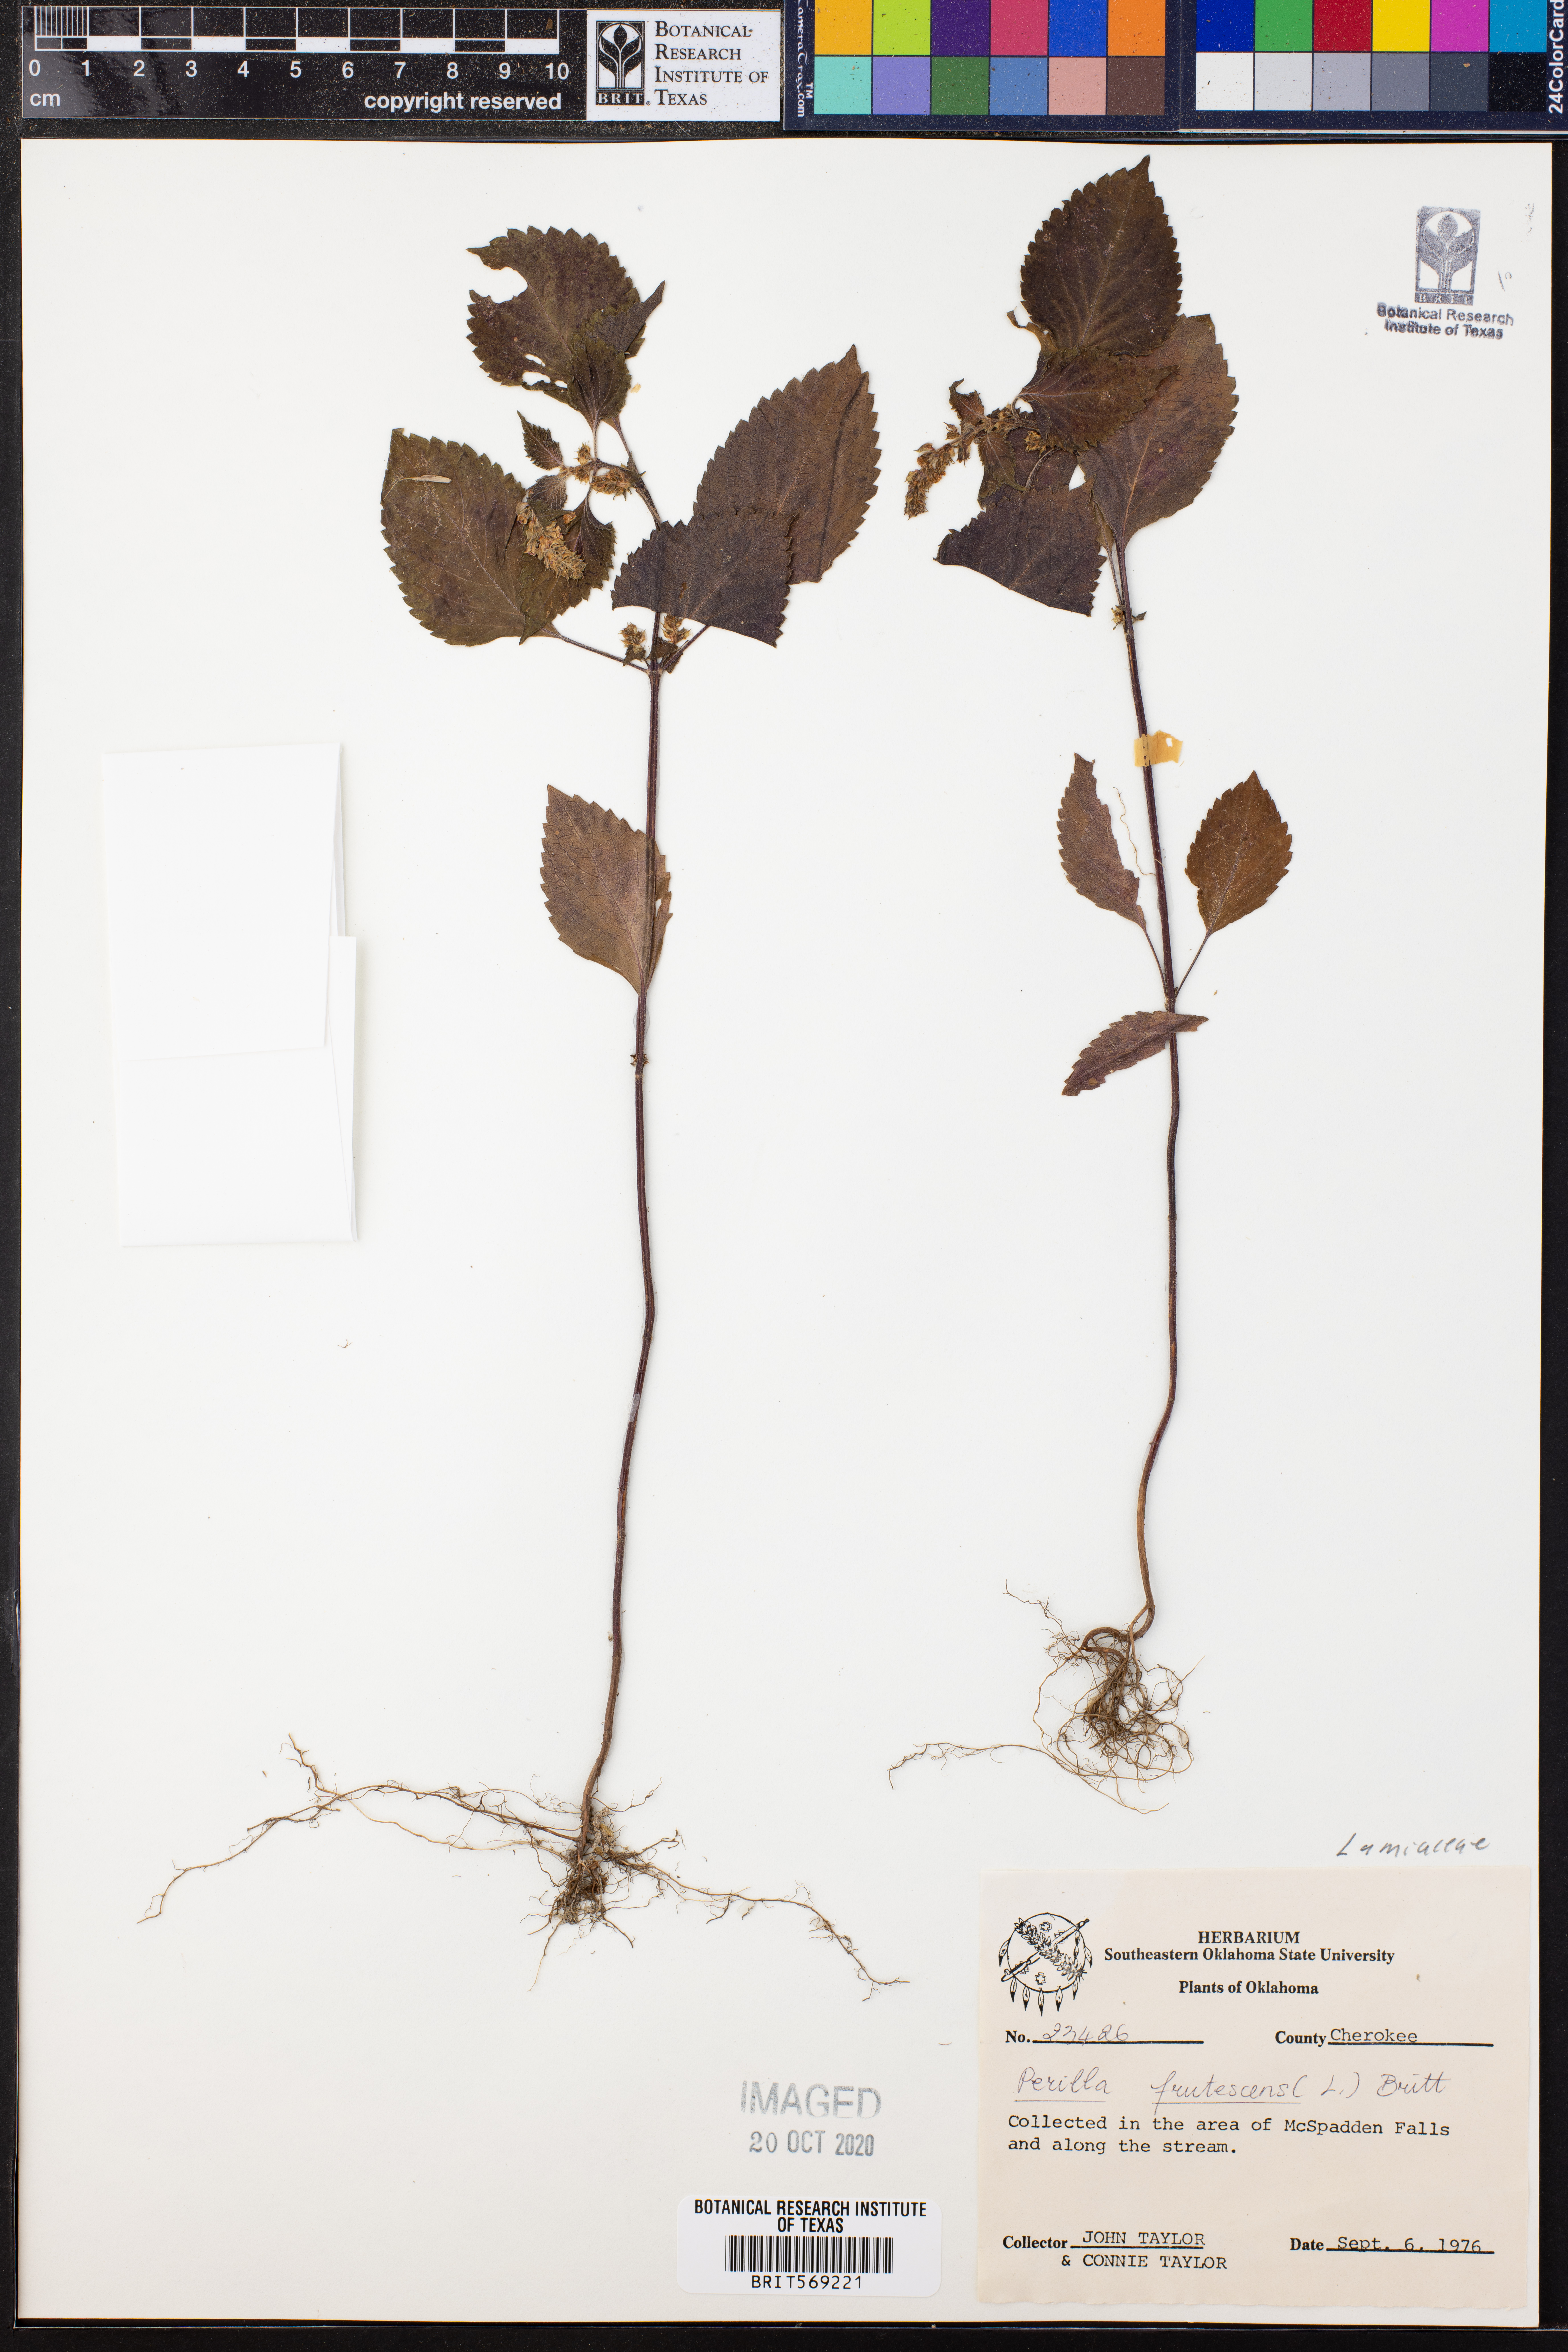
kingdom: Plantae
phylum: Tracheophyta
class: Magnoliopsida
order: Lamiales
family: Lamiaceae
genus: Perilla
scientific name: Perilla frutescens
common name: Perilla
